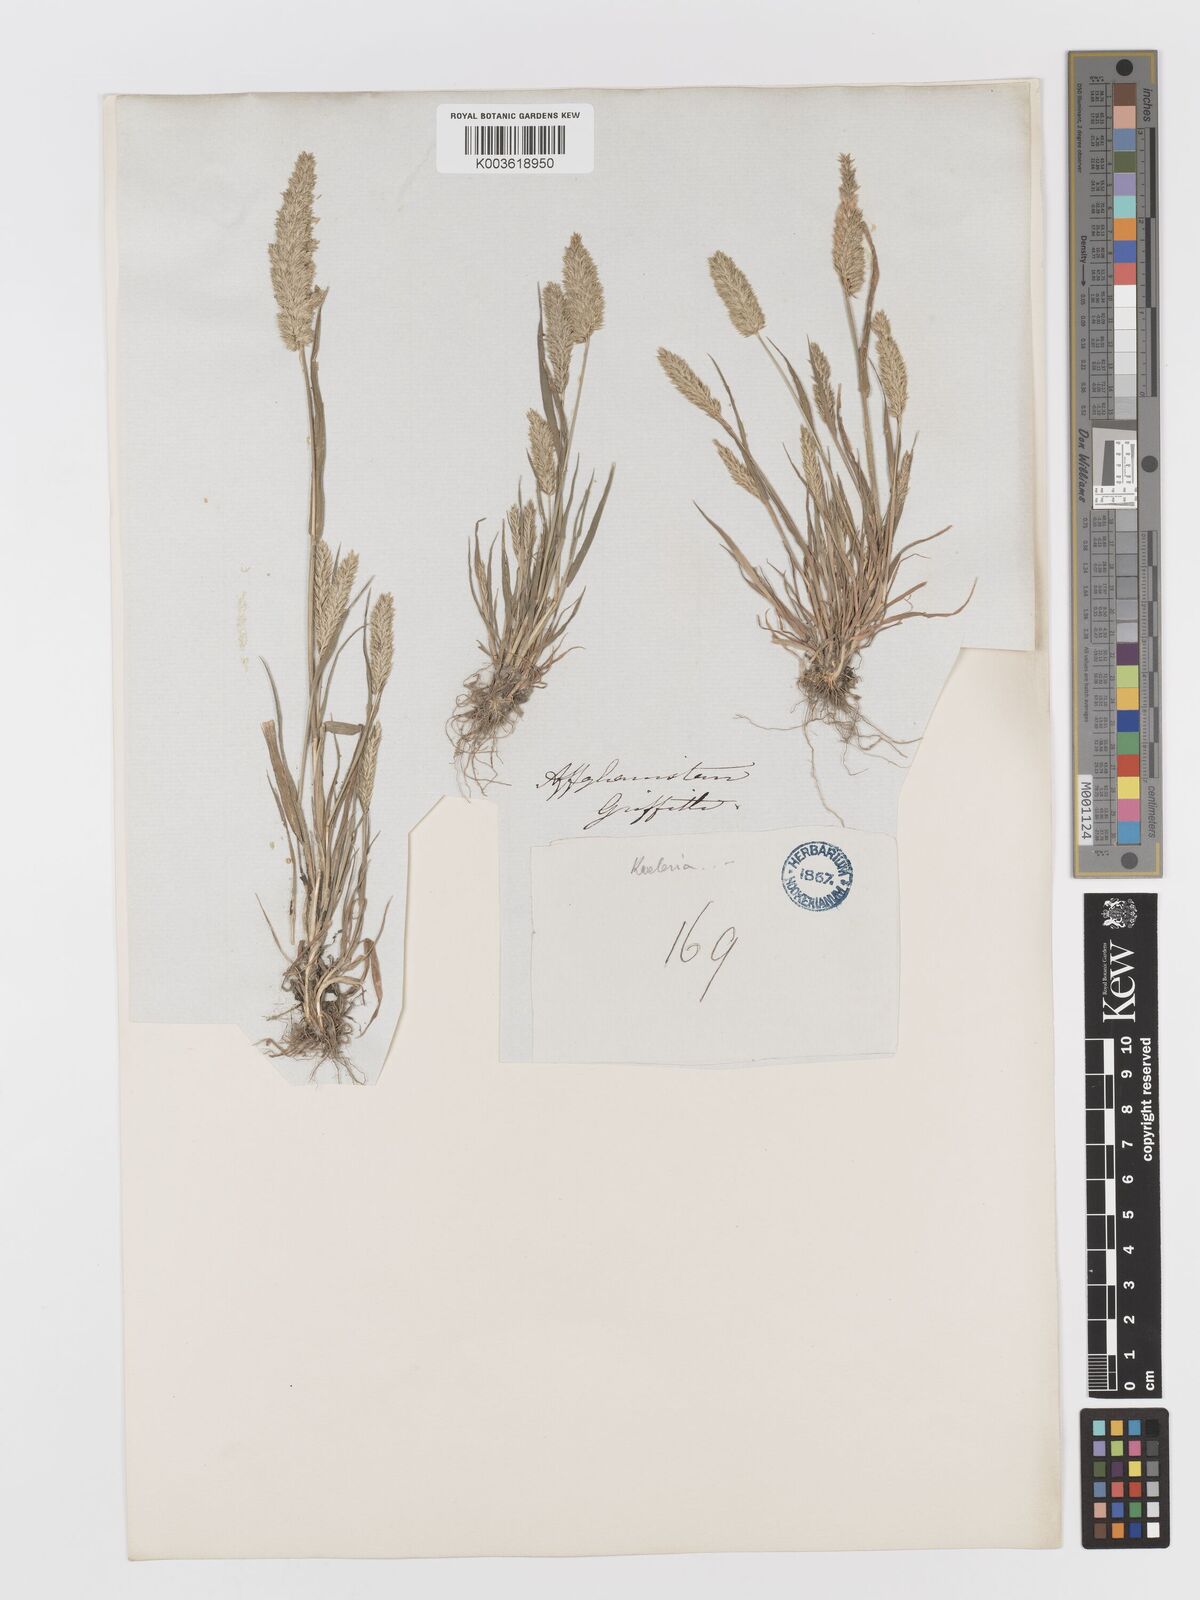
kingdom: Plantae
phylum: Tracheophyta
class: Liliopsida
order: Poales
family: Poaceae
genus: Rostraria
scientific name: Rostraria cristata
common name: Mediterranean hair-grass
